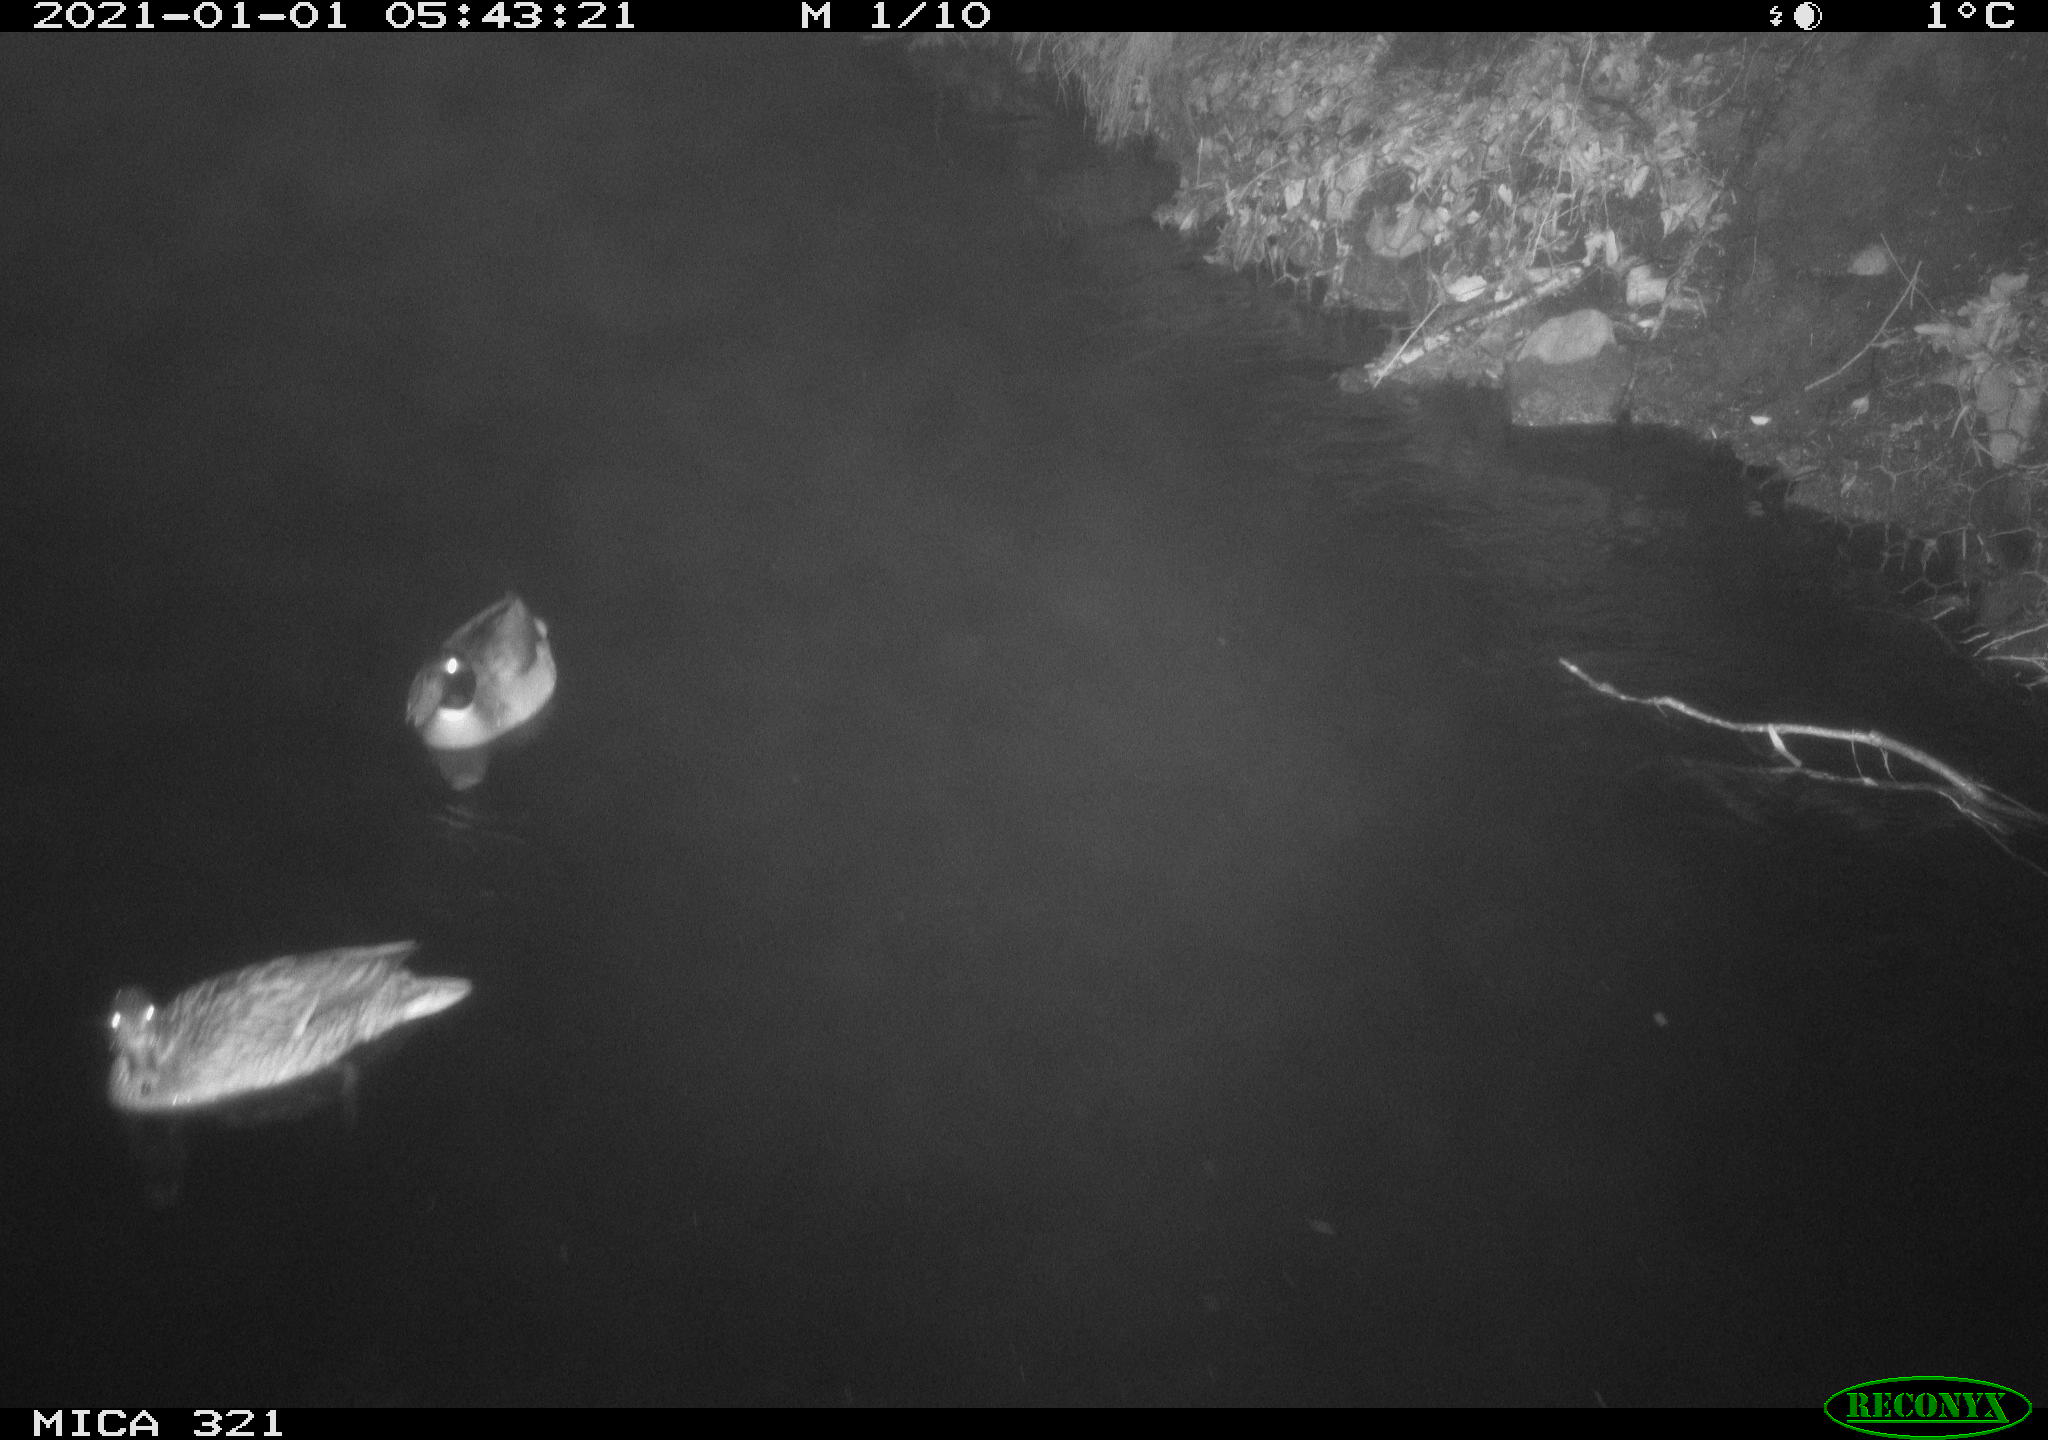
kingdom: Animalia
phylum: Chordata
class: Aves
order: Anseriformes
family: Anatidae
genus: Anas
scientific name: Anas platyrhynchos
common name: Mallard
